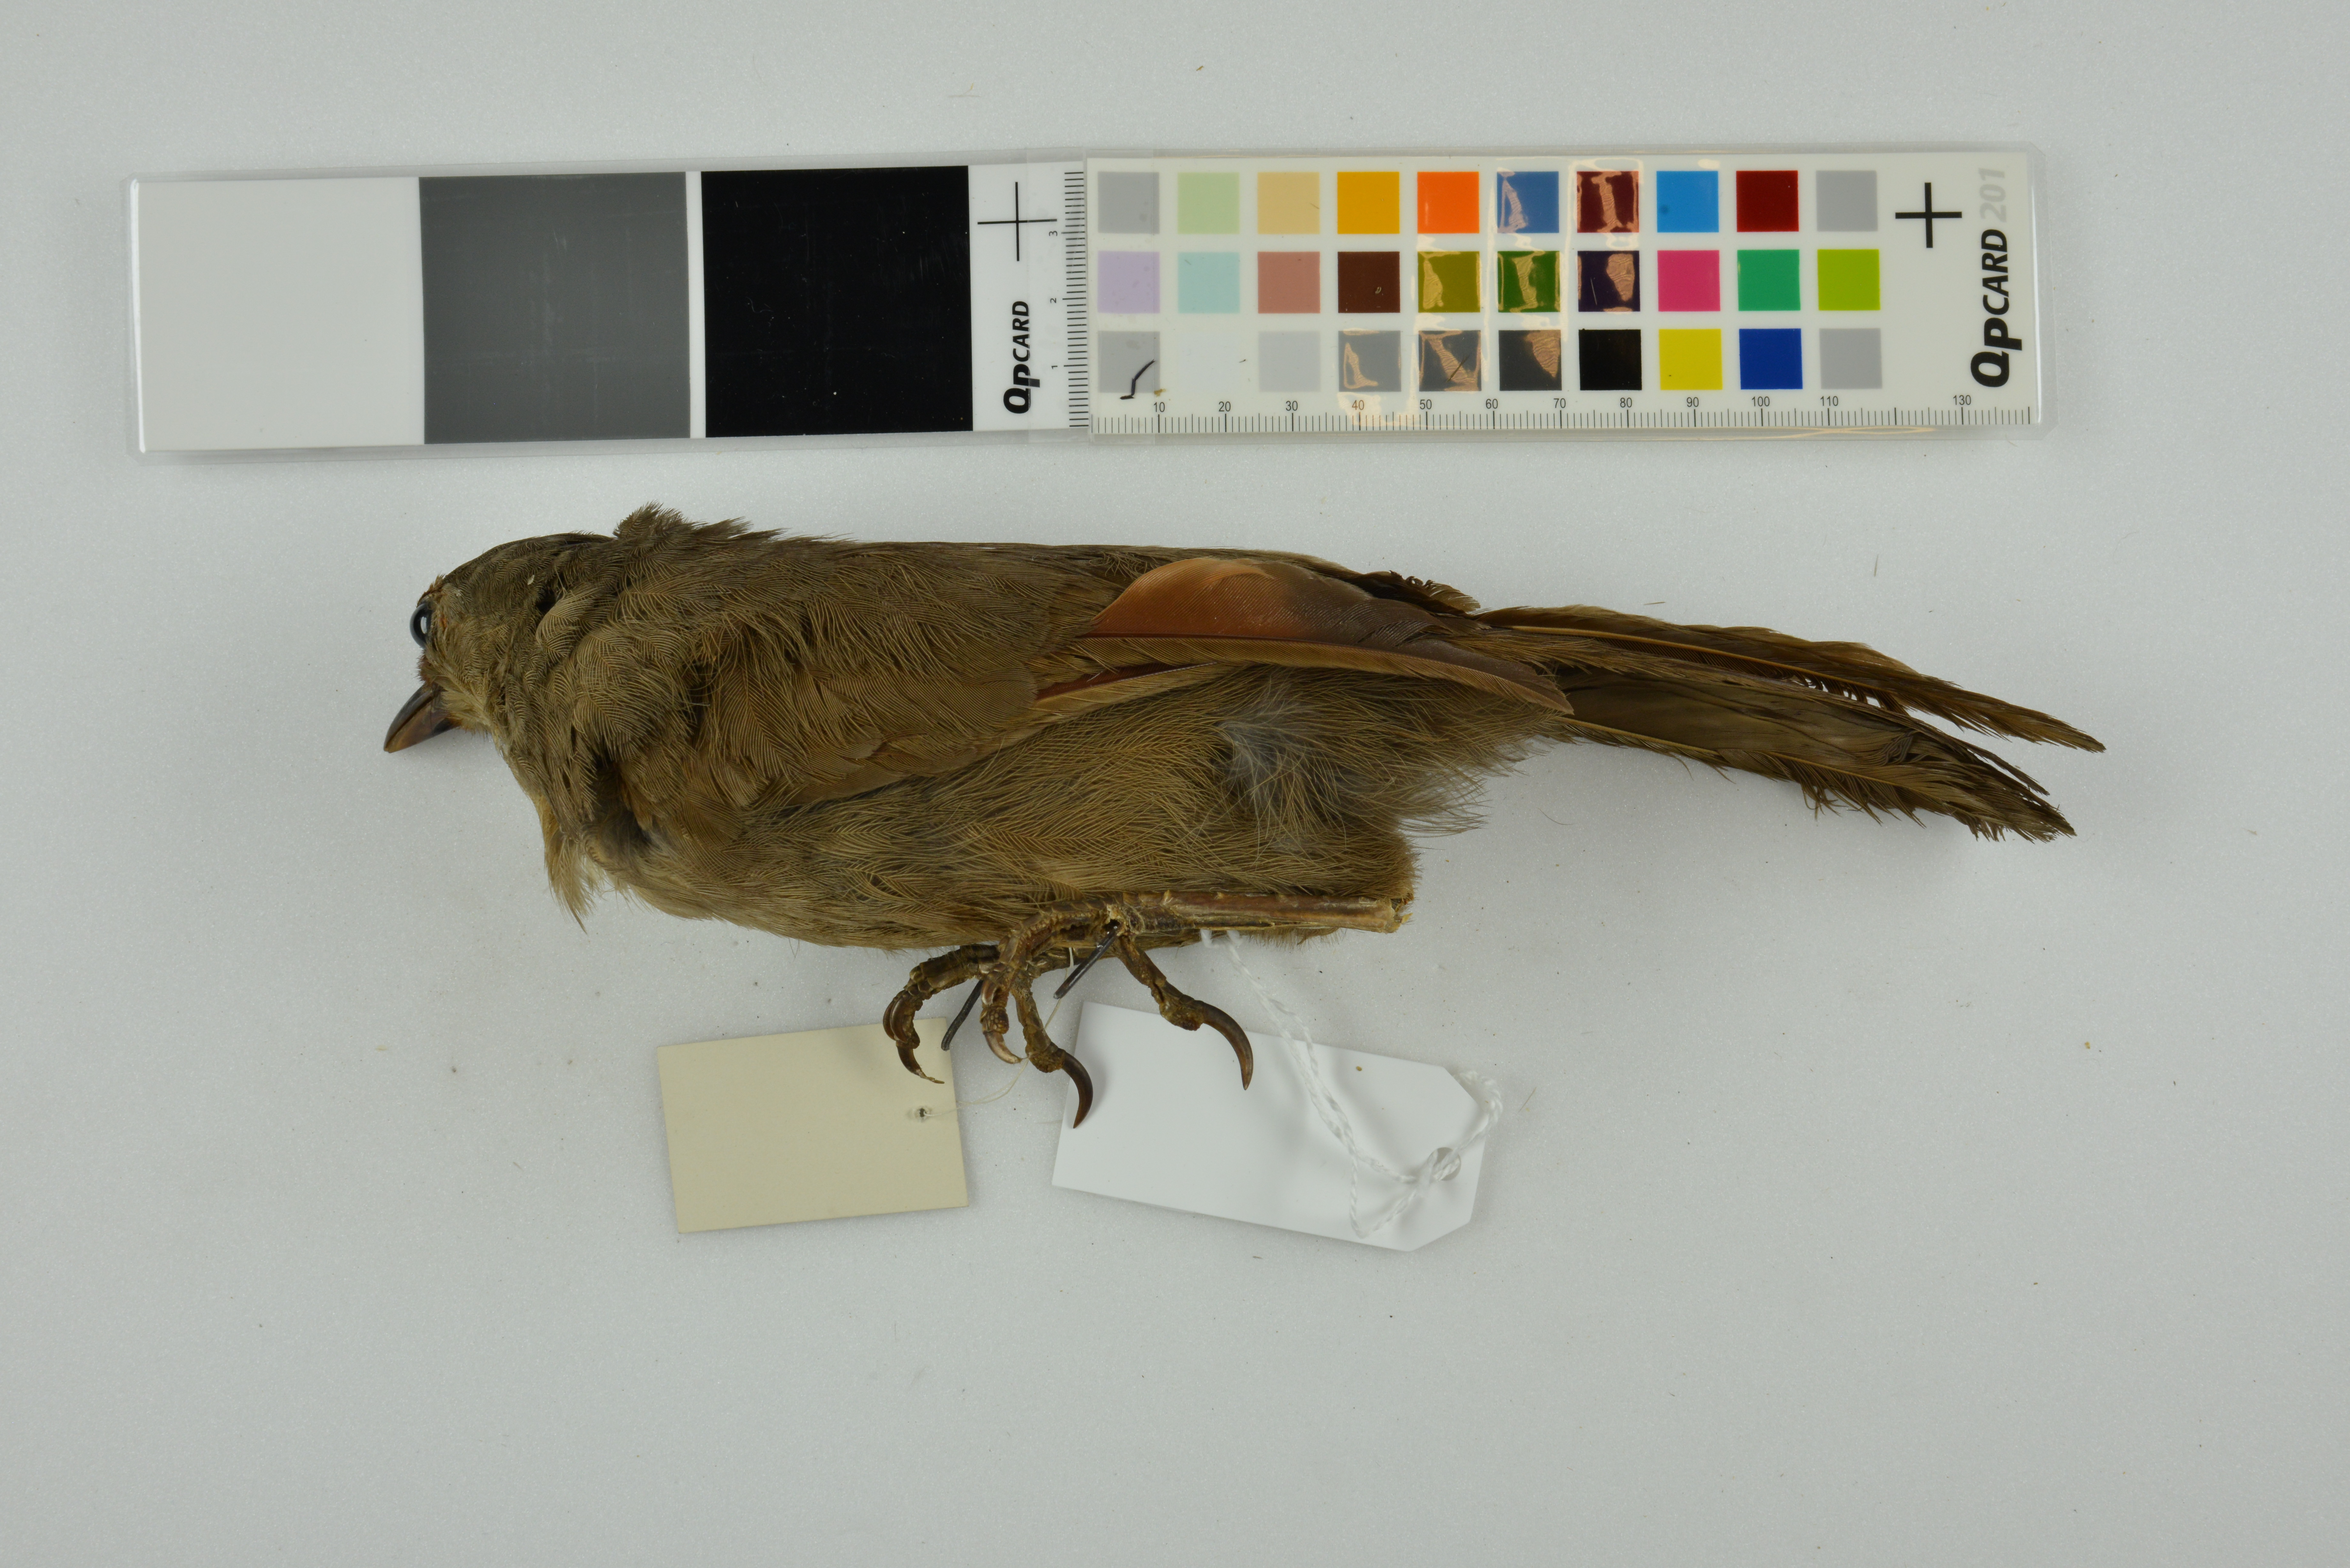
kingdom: Animalia
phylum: Chordata
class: Aves
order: Passeriformes
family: Leiothrichidae
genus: Garrulax
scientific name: Garrulax rufifrons
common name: Rufous-fronted laughingthrush
